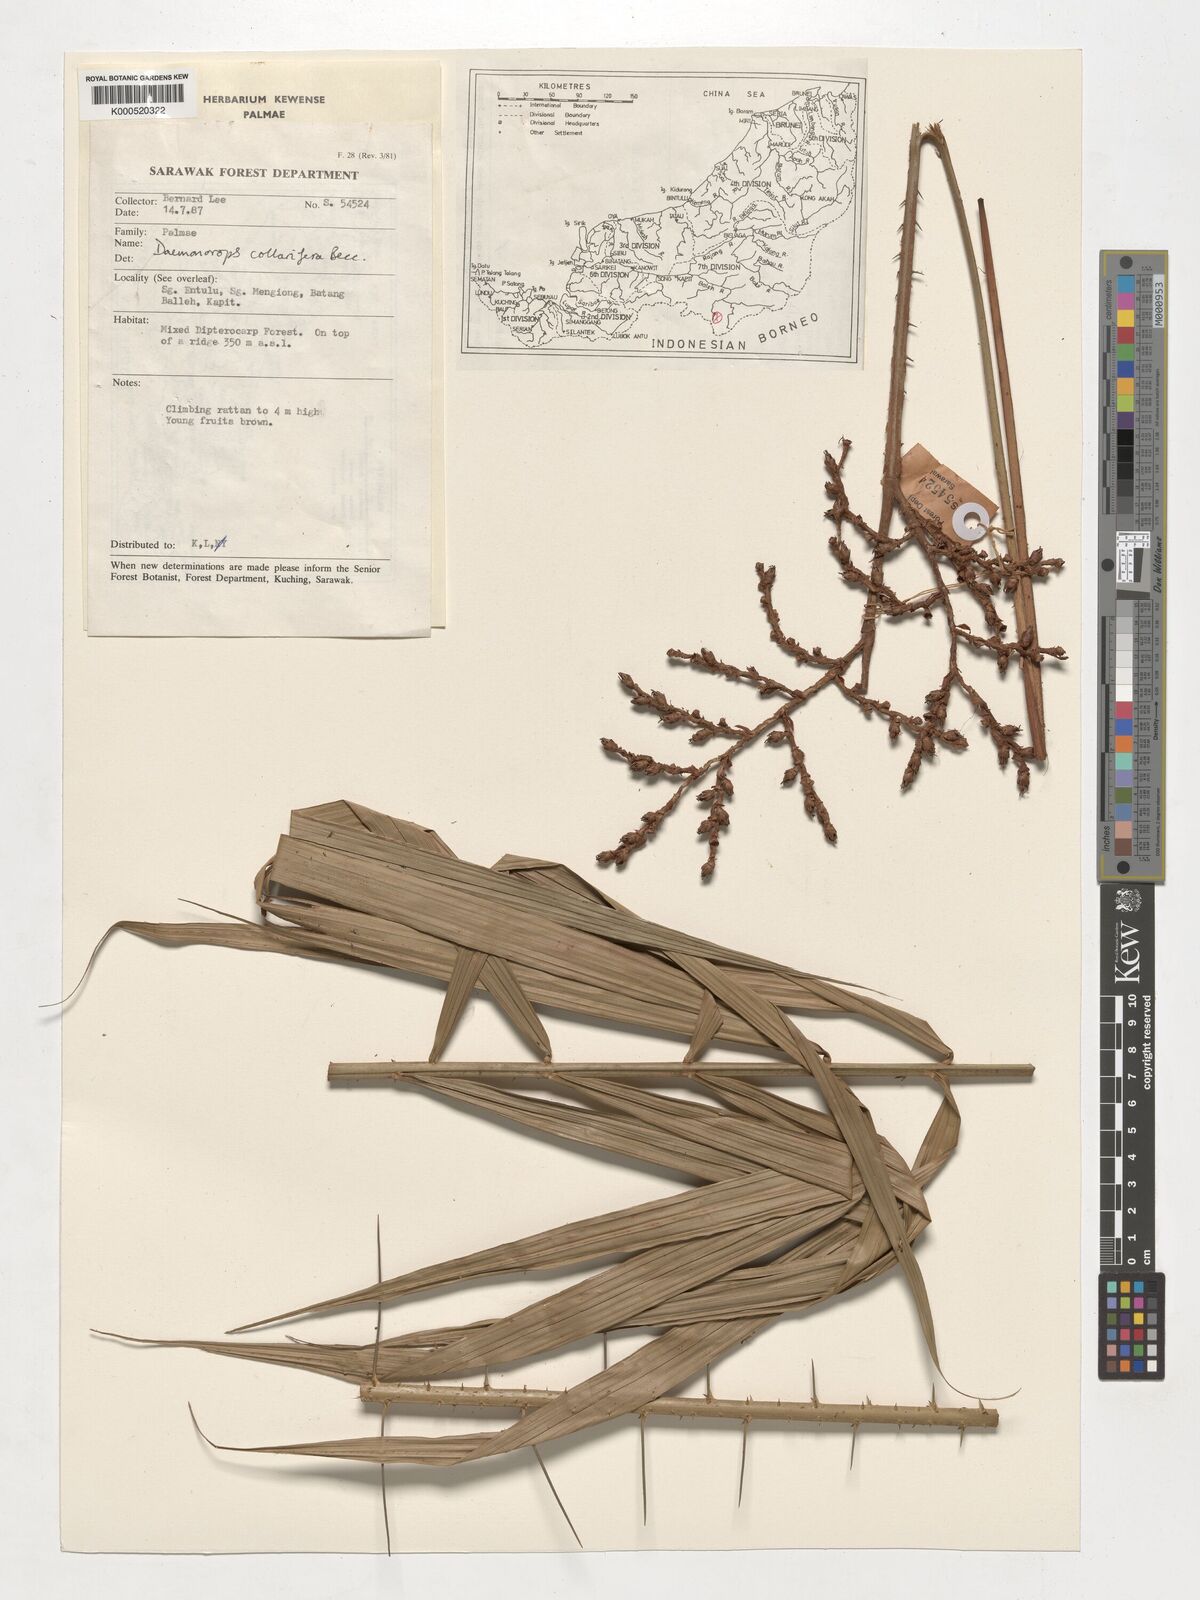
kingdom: Plantae
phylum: Tracheophyta
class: Liliopsida
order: Arecales
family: Arecaceae
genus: Calamus
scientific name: Calamus geniculatus
